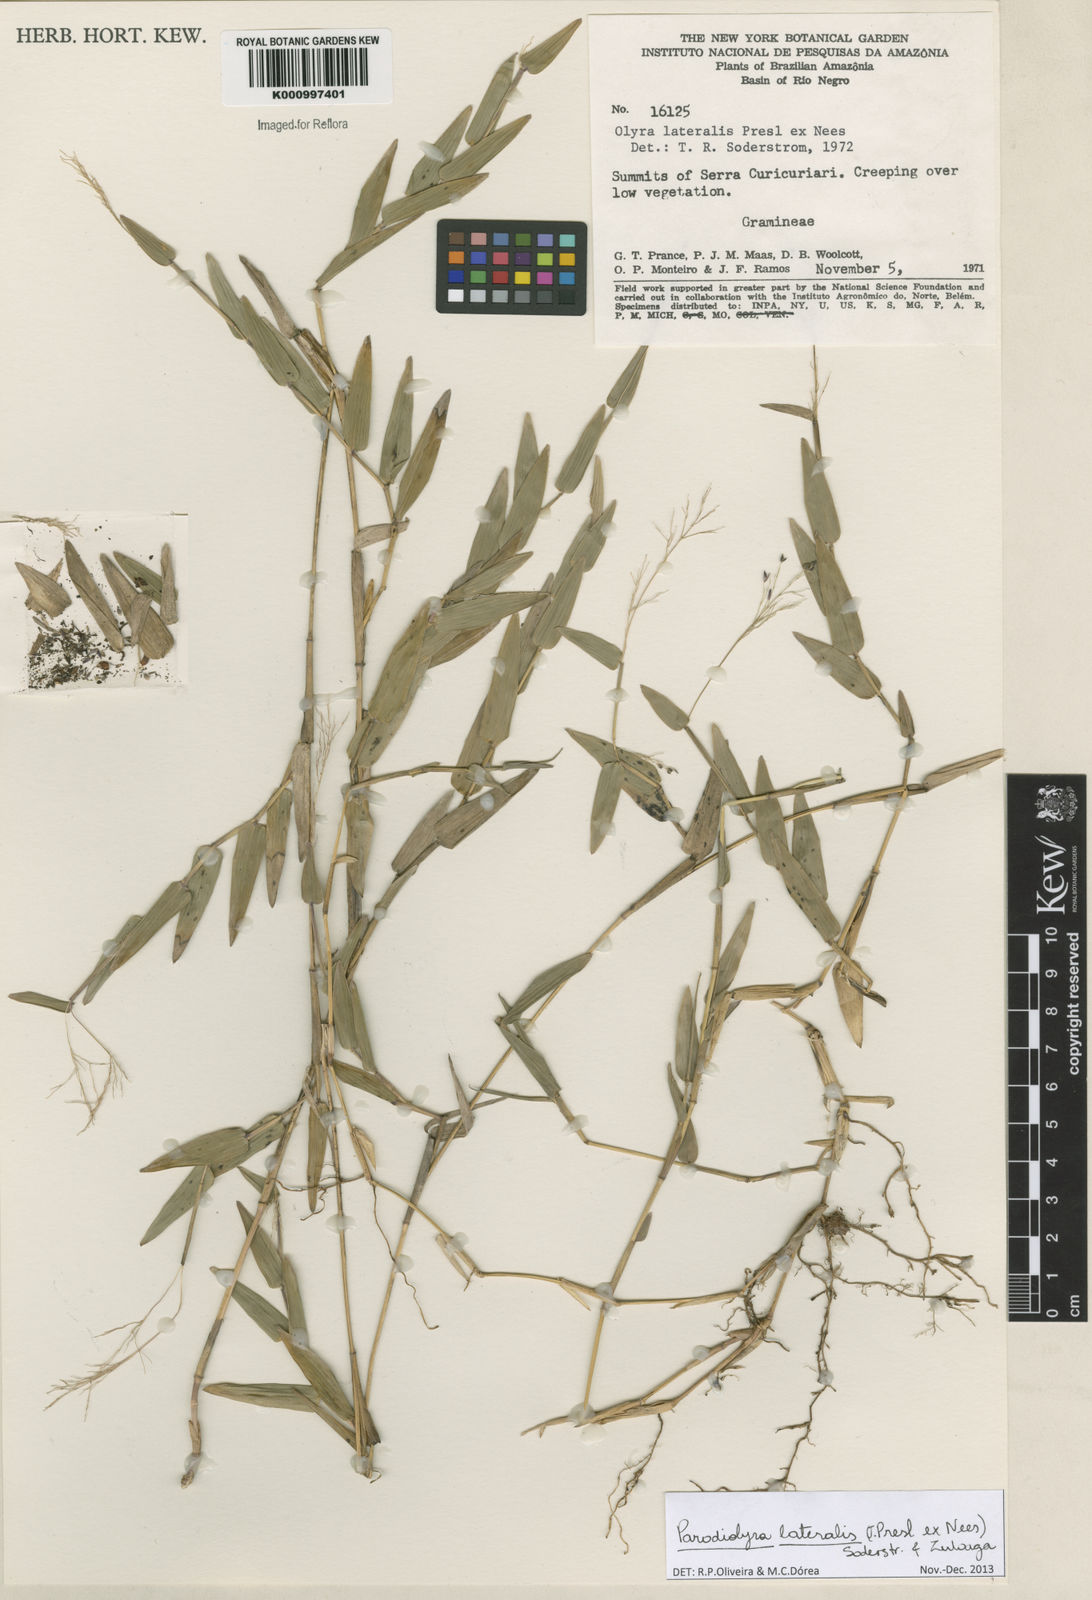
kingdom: Plantae
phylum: Tracheophyta
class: Liliopsida
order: Poales
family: Poaceae
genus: Parodiolyra
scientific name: Parodiolyra lateralis
